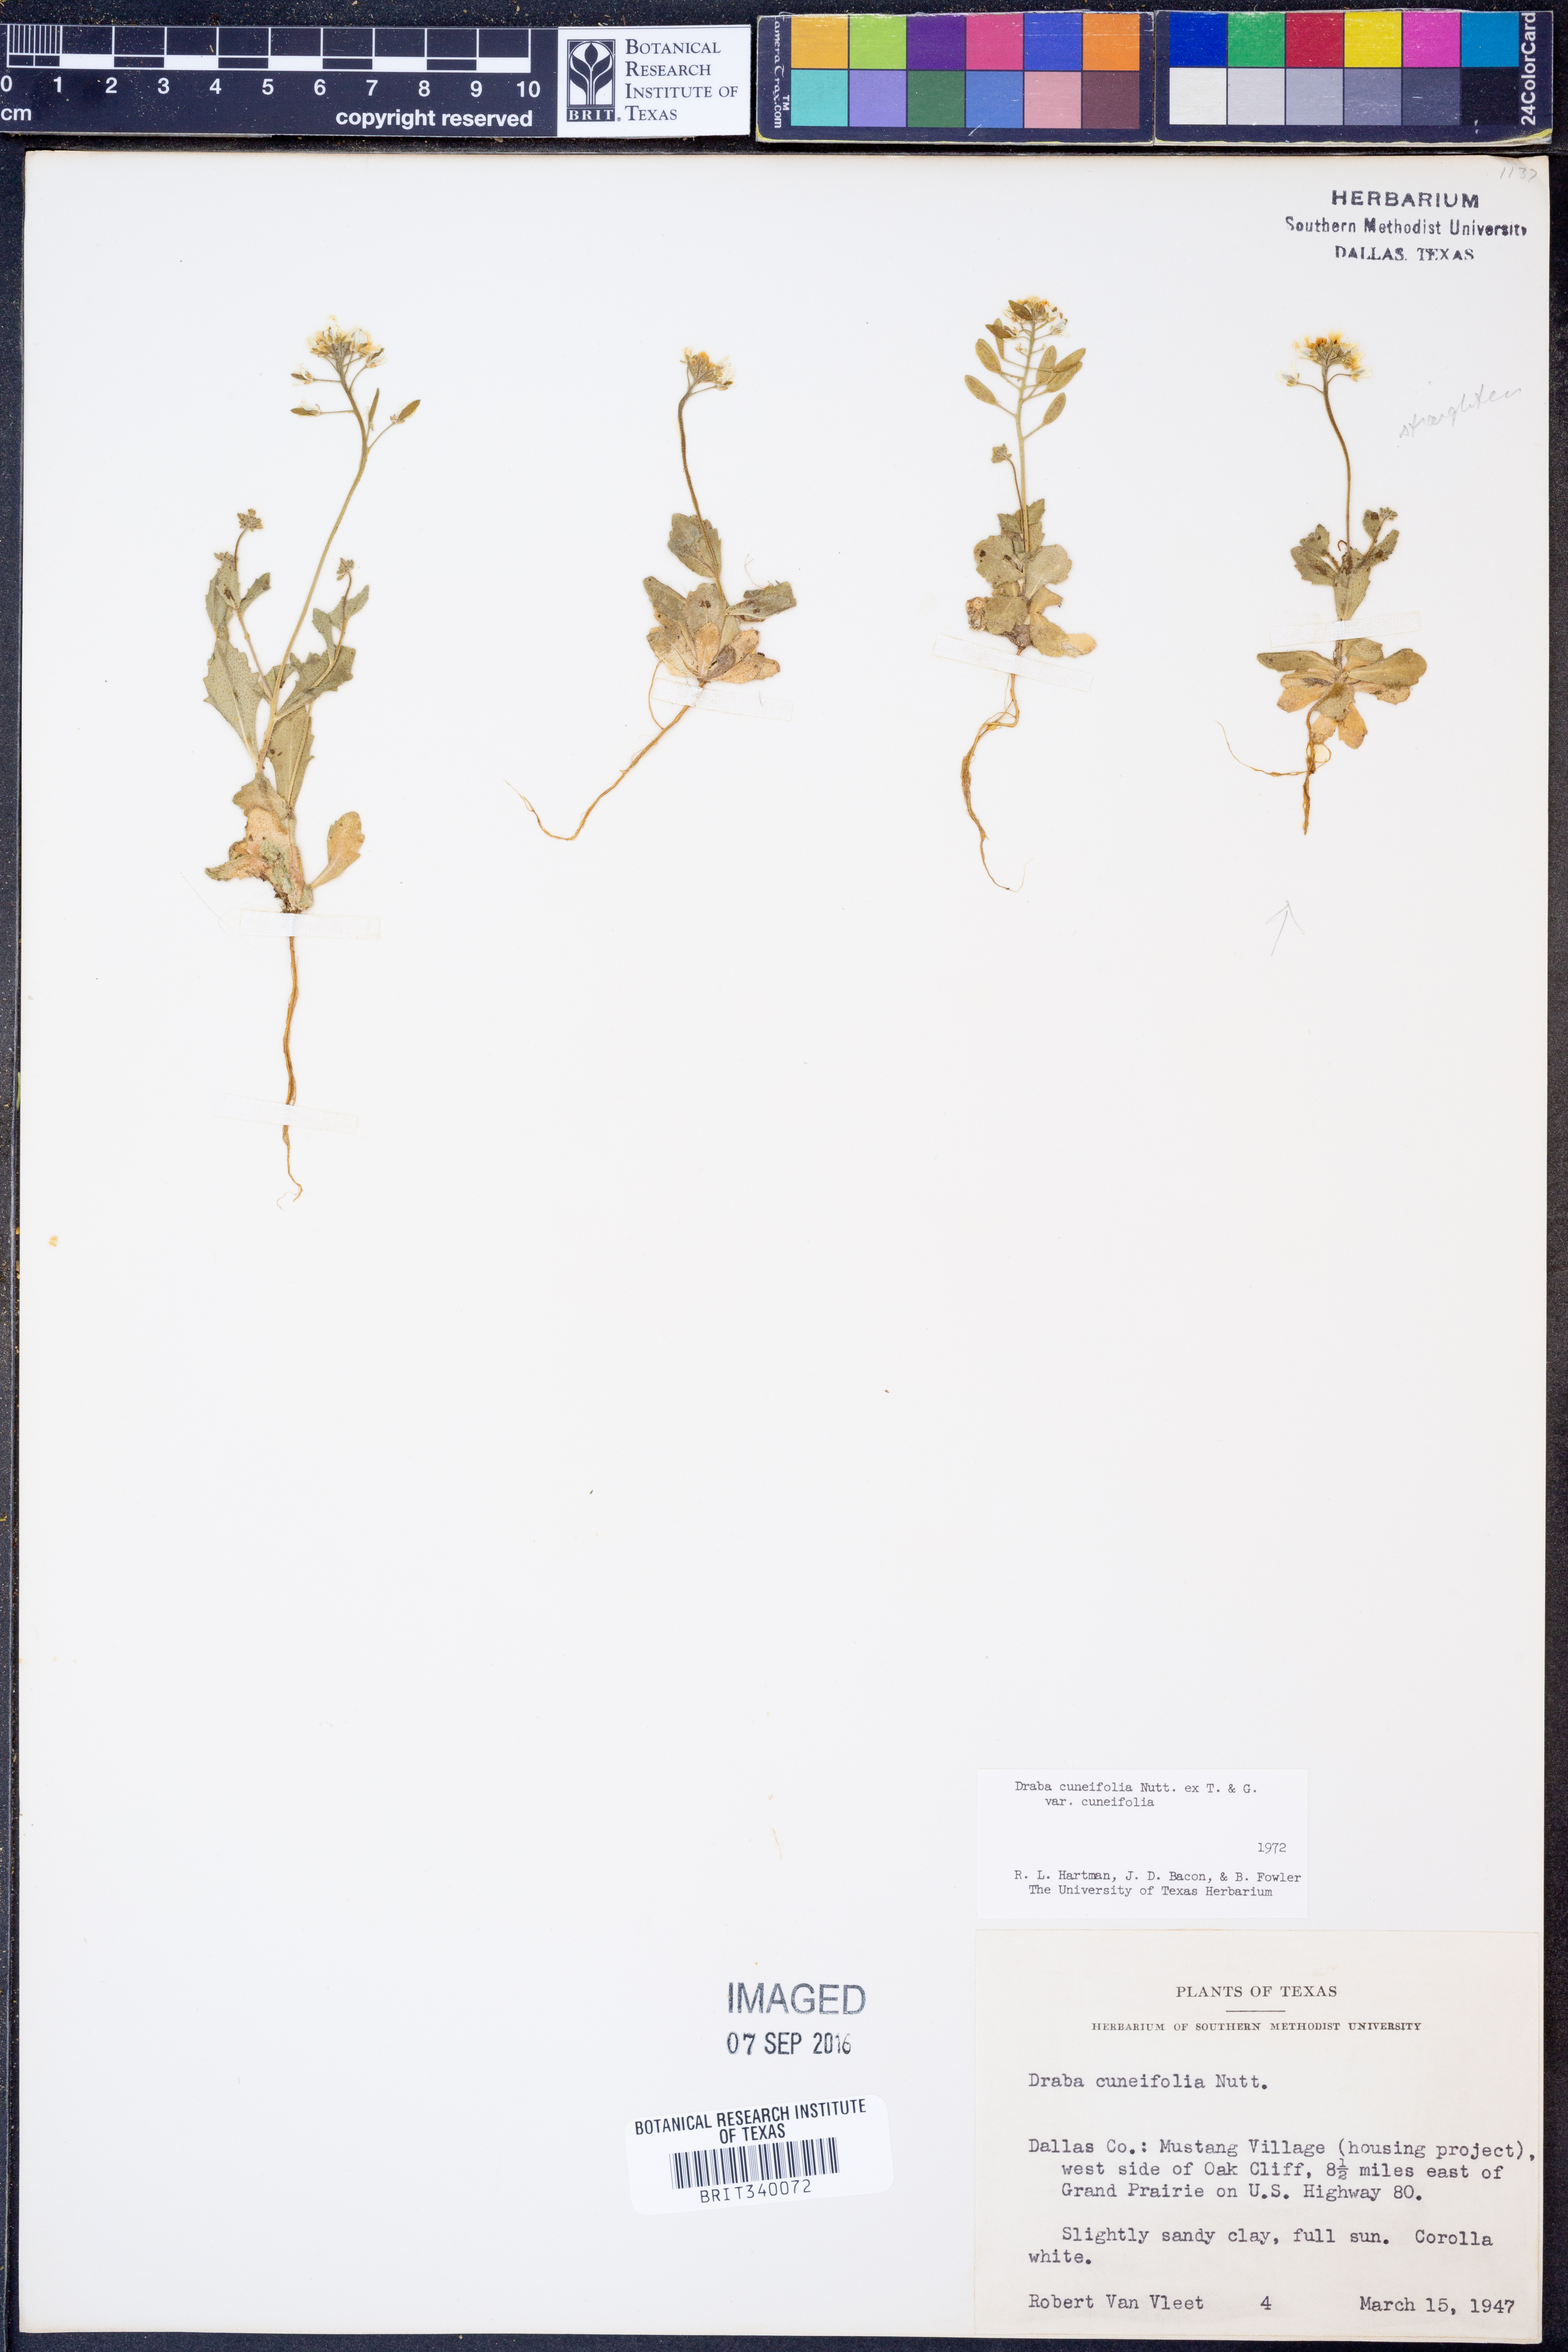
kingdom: Plantae
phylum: Tracheophyta
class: Magnoliopsida
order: Brassicales
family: Brassicaceae
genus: Tomostima
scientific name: Tomostima cuneifolia
